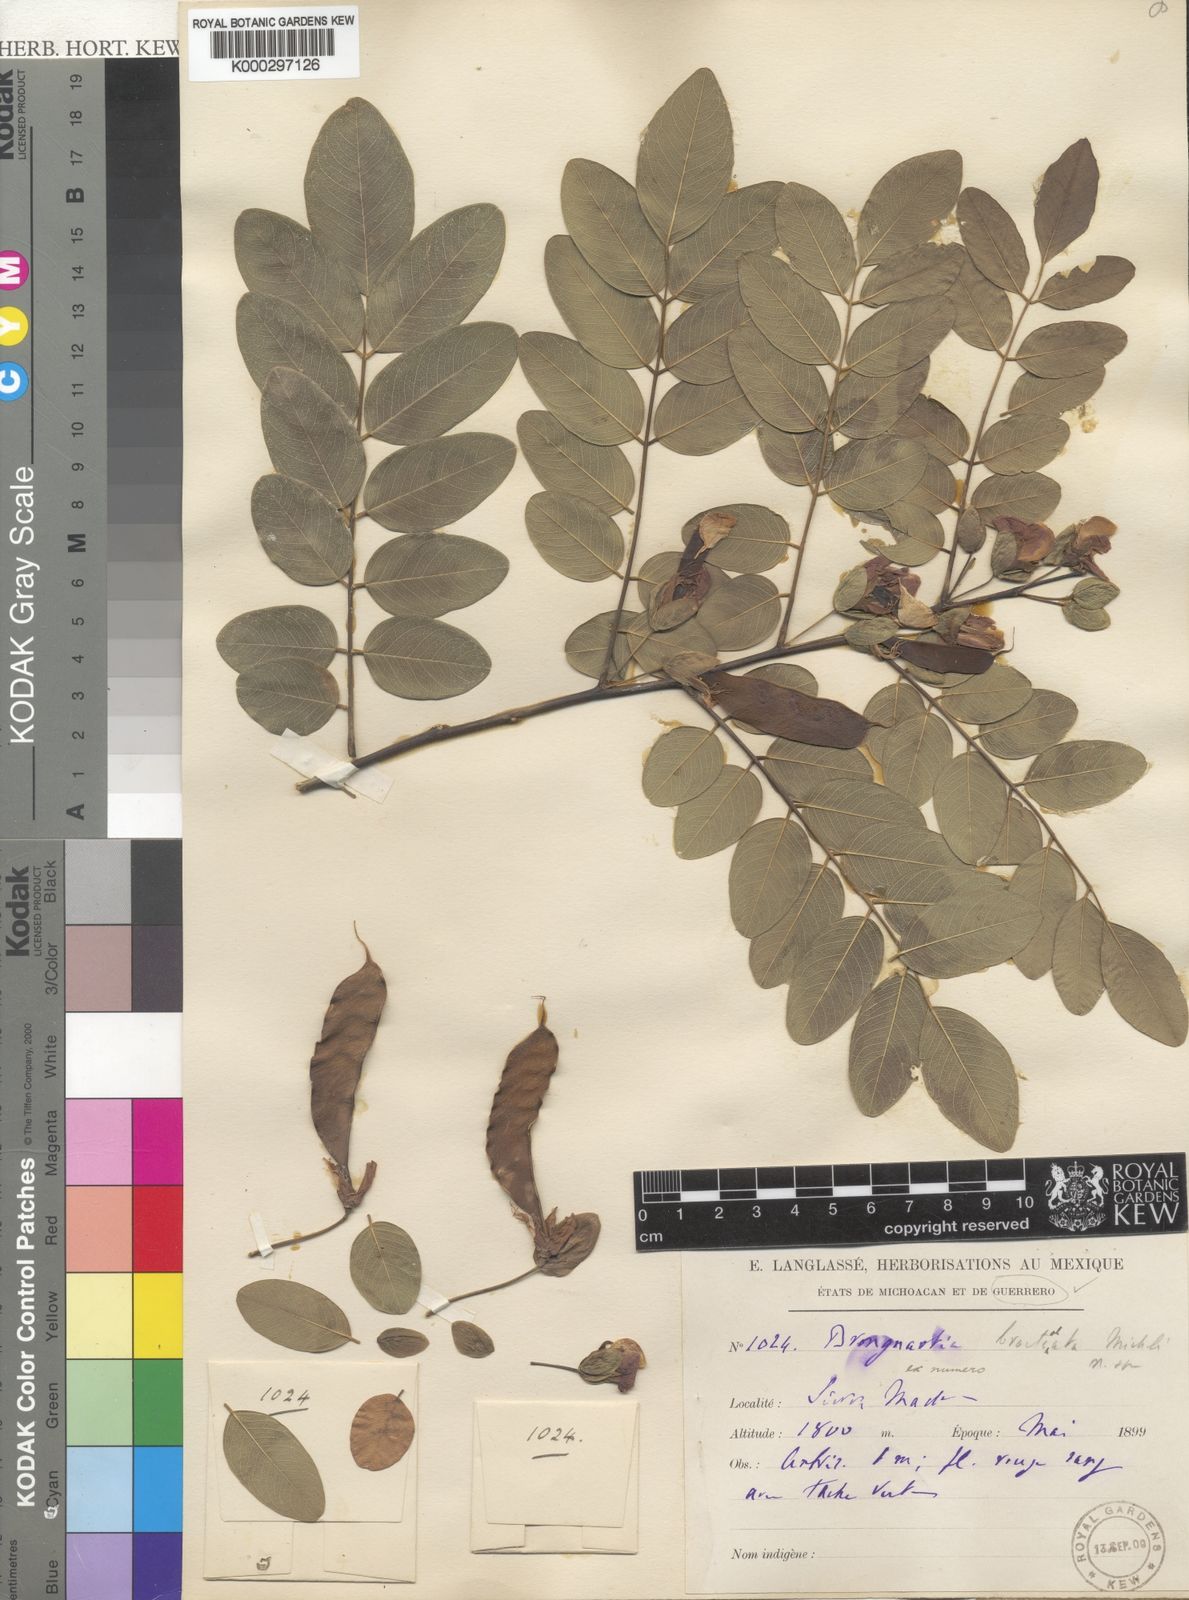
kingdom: Plantae
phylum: Tracheophyta
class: Magnoliopsida
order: Fabales
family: Fabaceae
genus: Brongniartia
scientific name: Brongniartia glabrata
